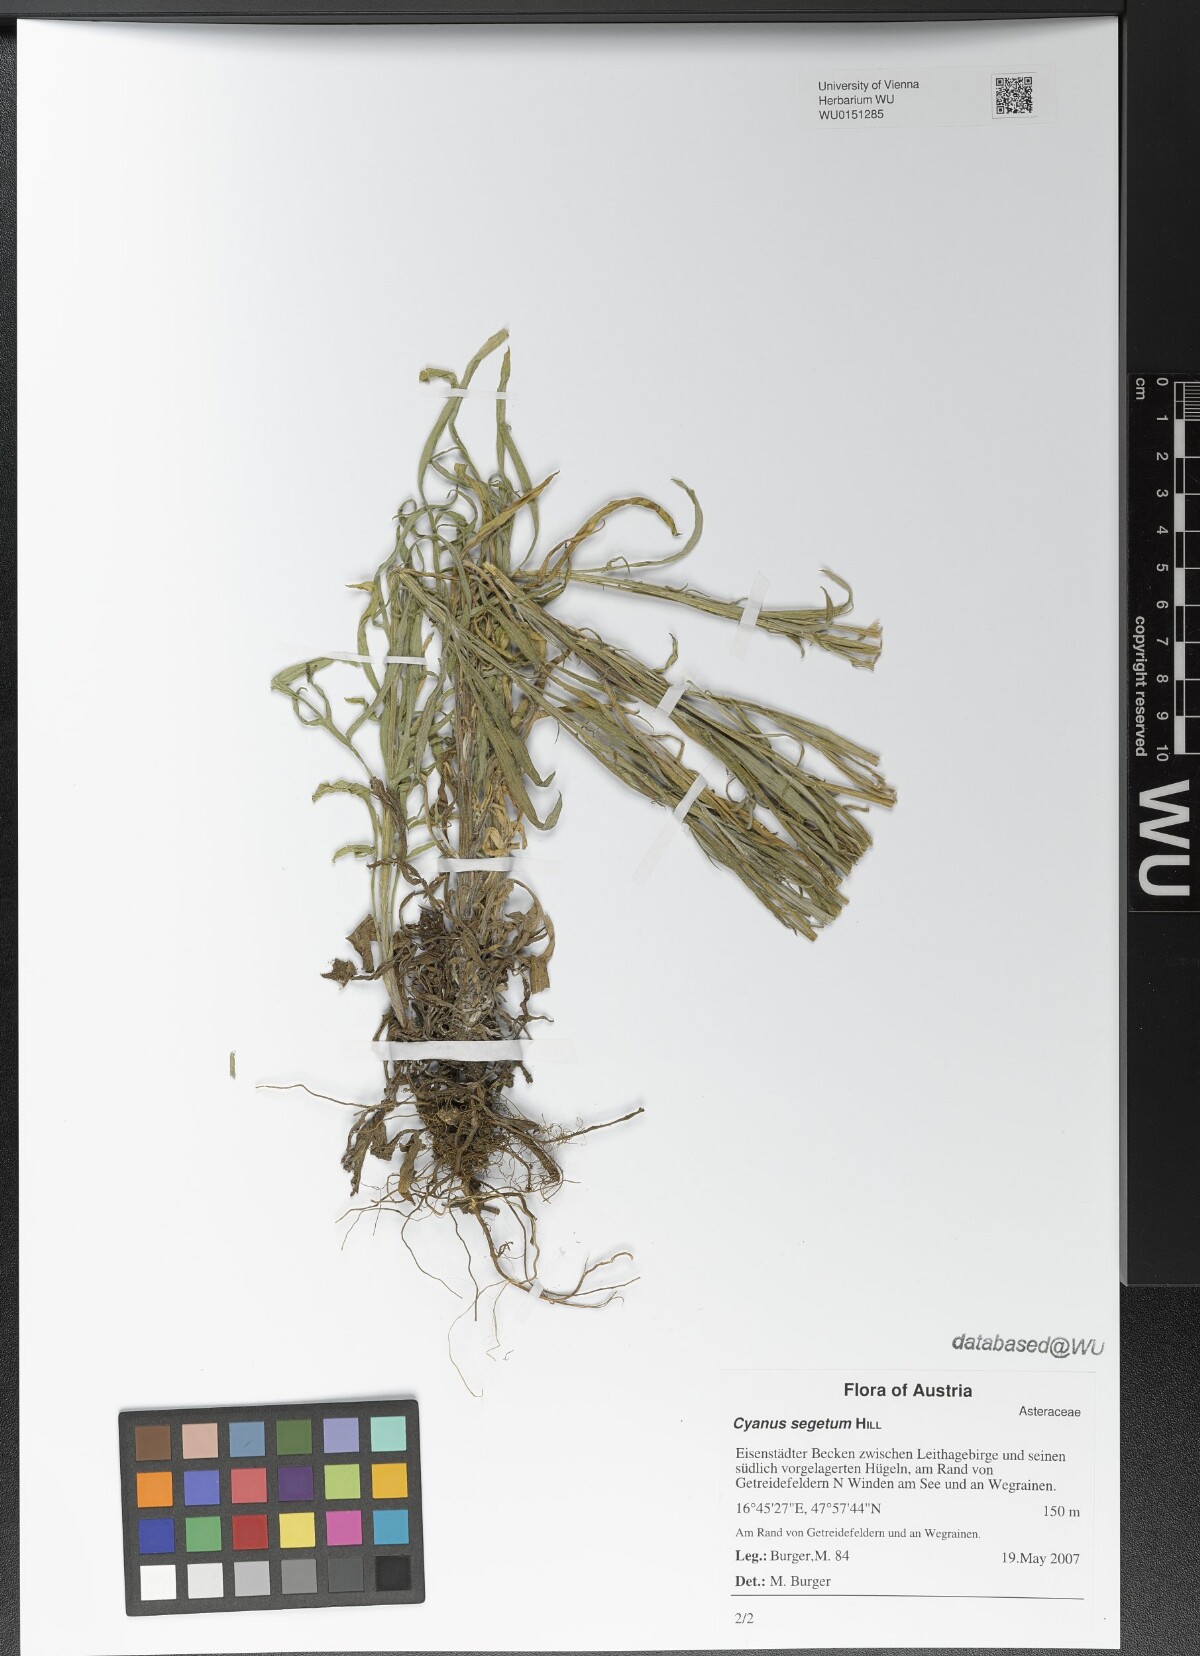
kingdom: Plantae
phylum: Tracheophyta
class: Magnoliopsida
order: Asterales
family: Asteraceae
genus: Centaurea
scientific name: Centaurea cyanus
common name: Cornflower
